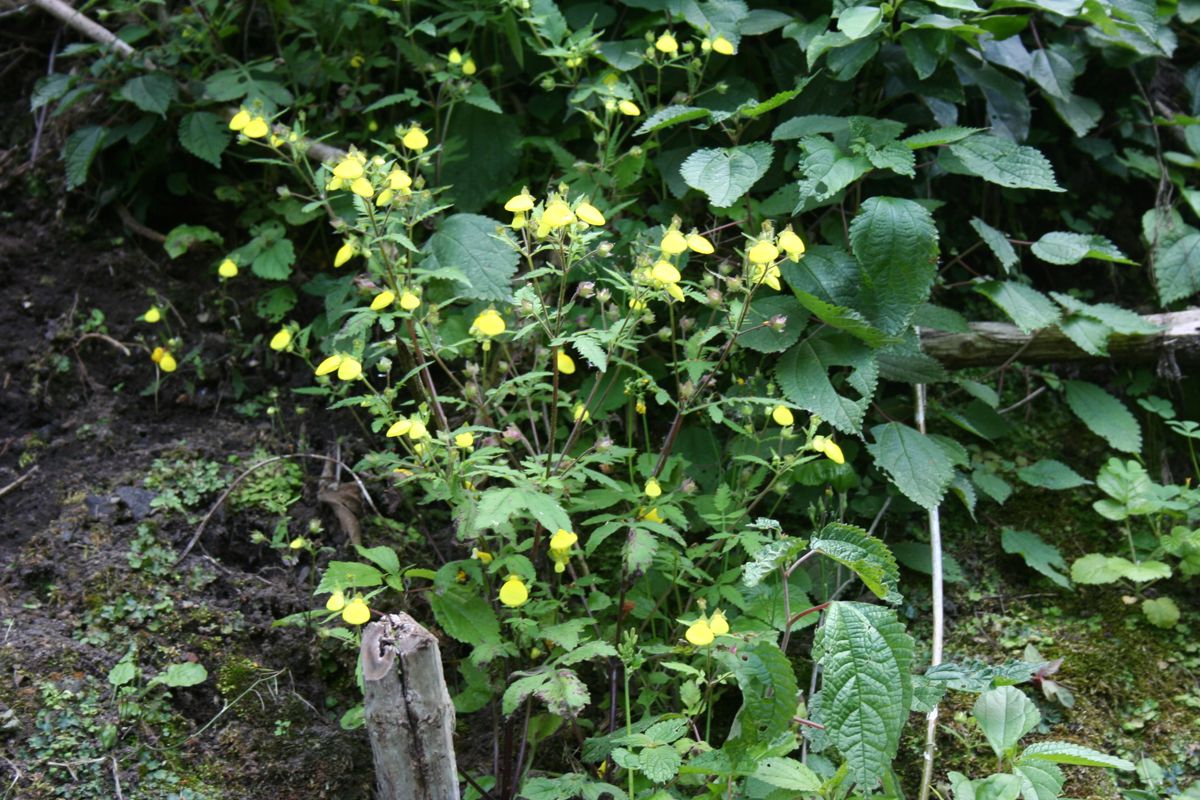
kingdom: Plantae
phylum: Tracheophyta
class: Magnoliopsida
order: Lamiales
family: Calceolariaceae
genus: Calceolaria
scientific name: Calceolaria mexicana
